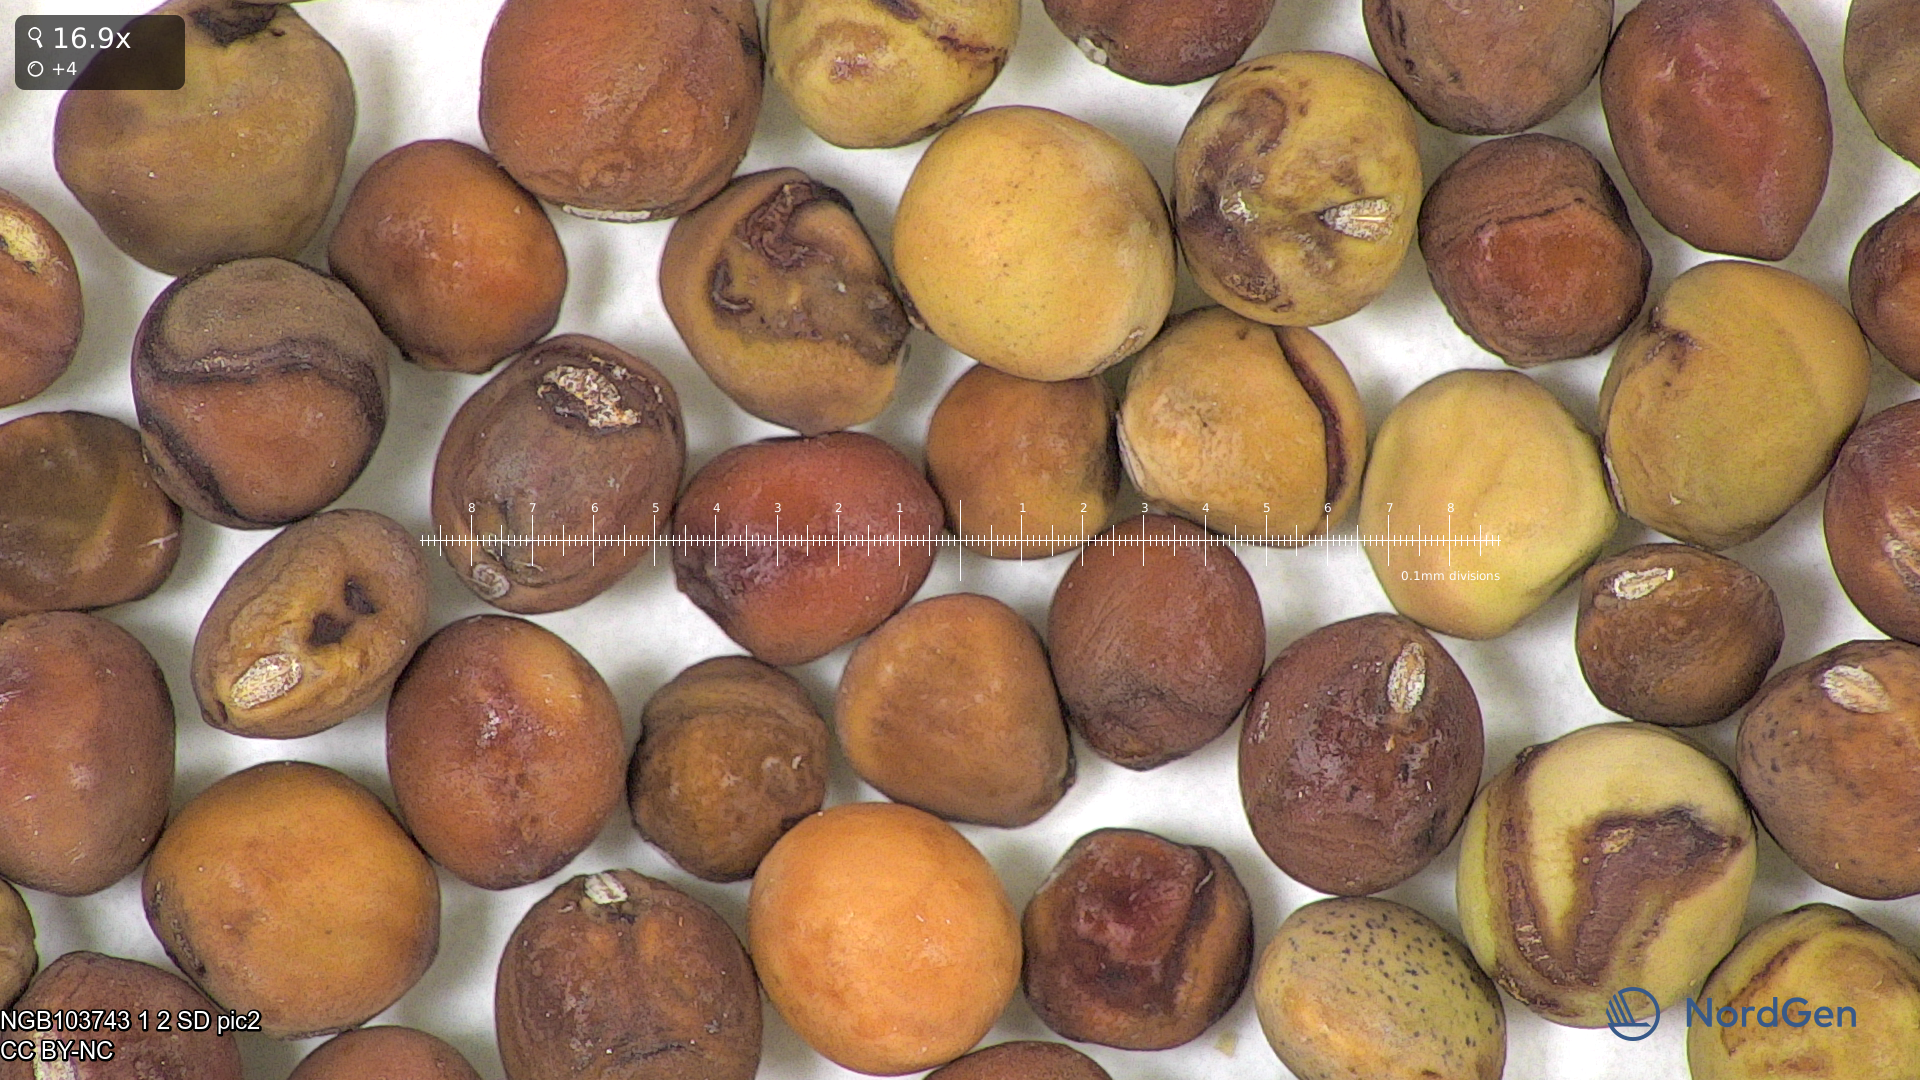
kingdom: Plantae
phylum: Tracheophyta
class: Magnoliopsida
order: Fabales
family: Fabaceae
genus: Lathyrus
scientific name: Lathyrus oleraceus
